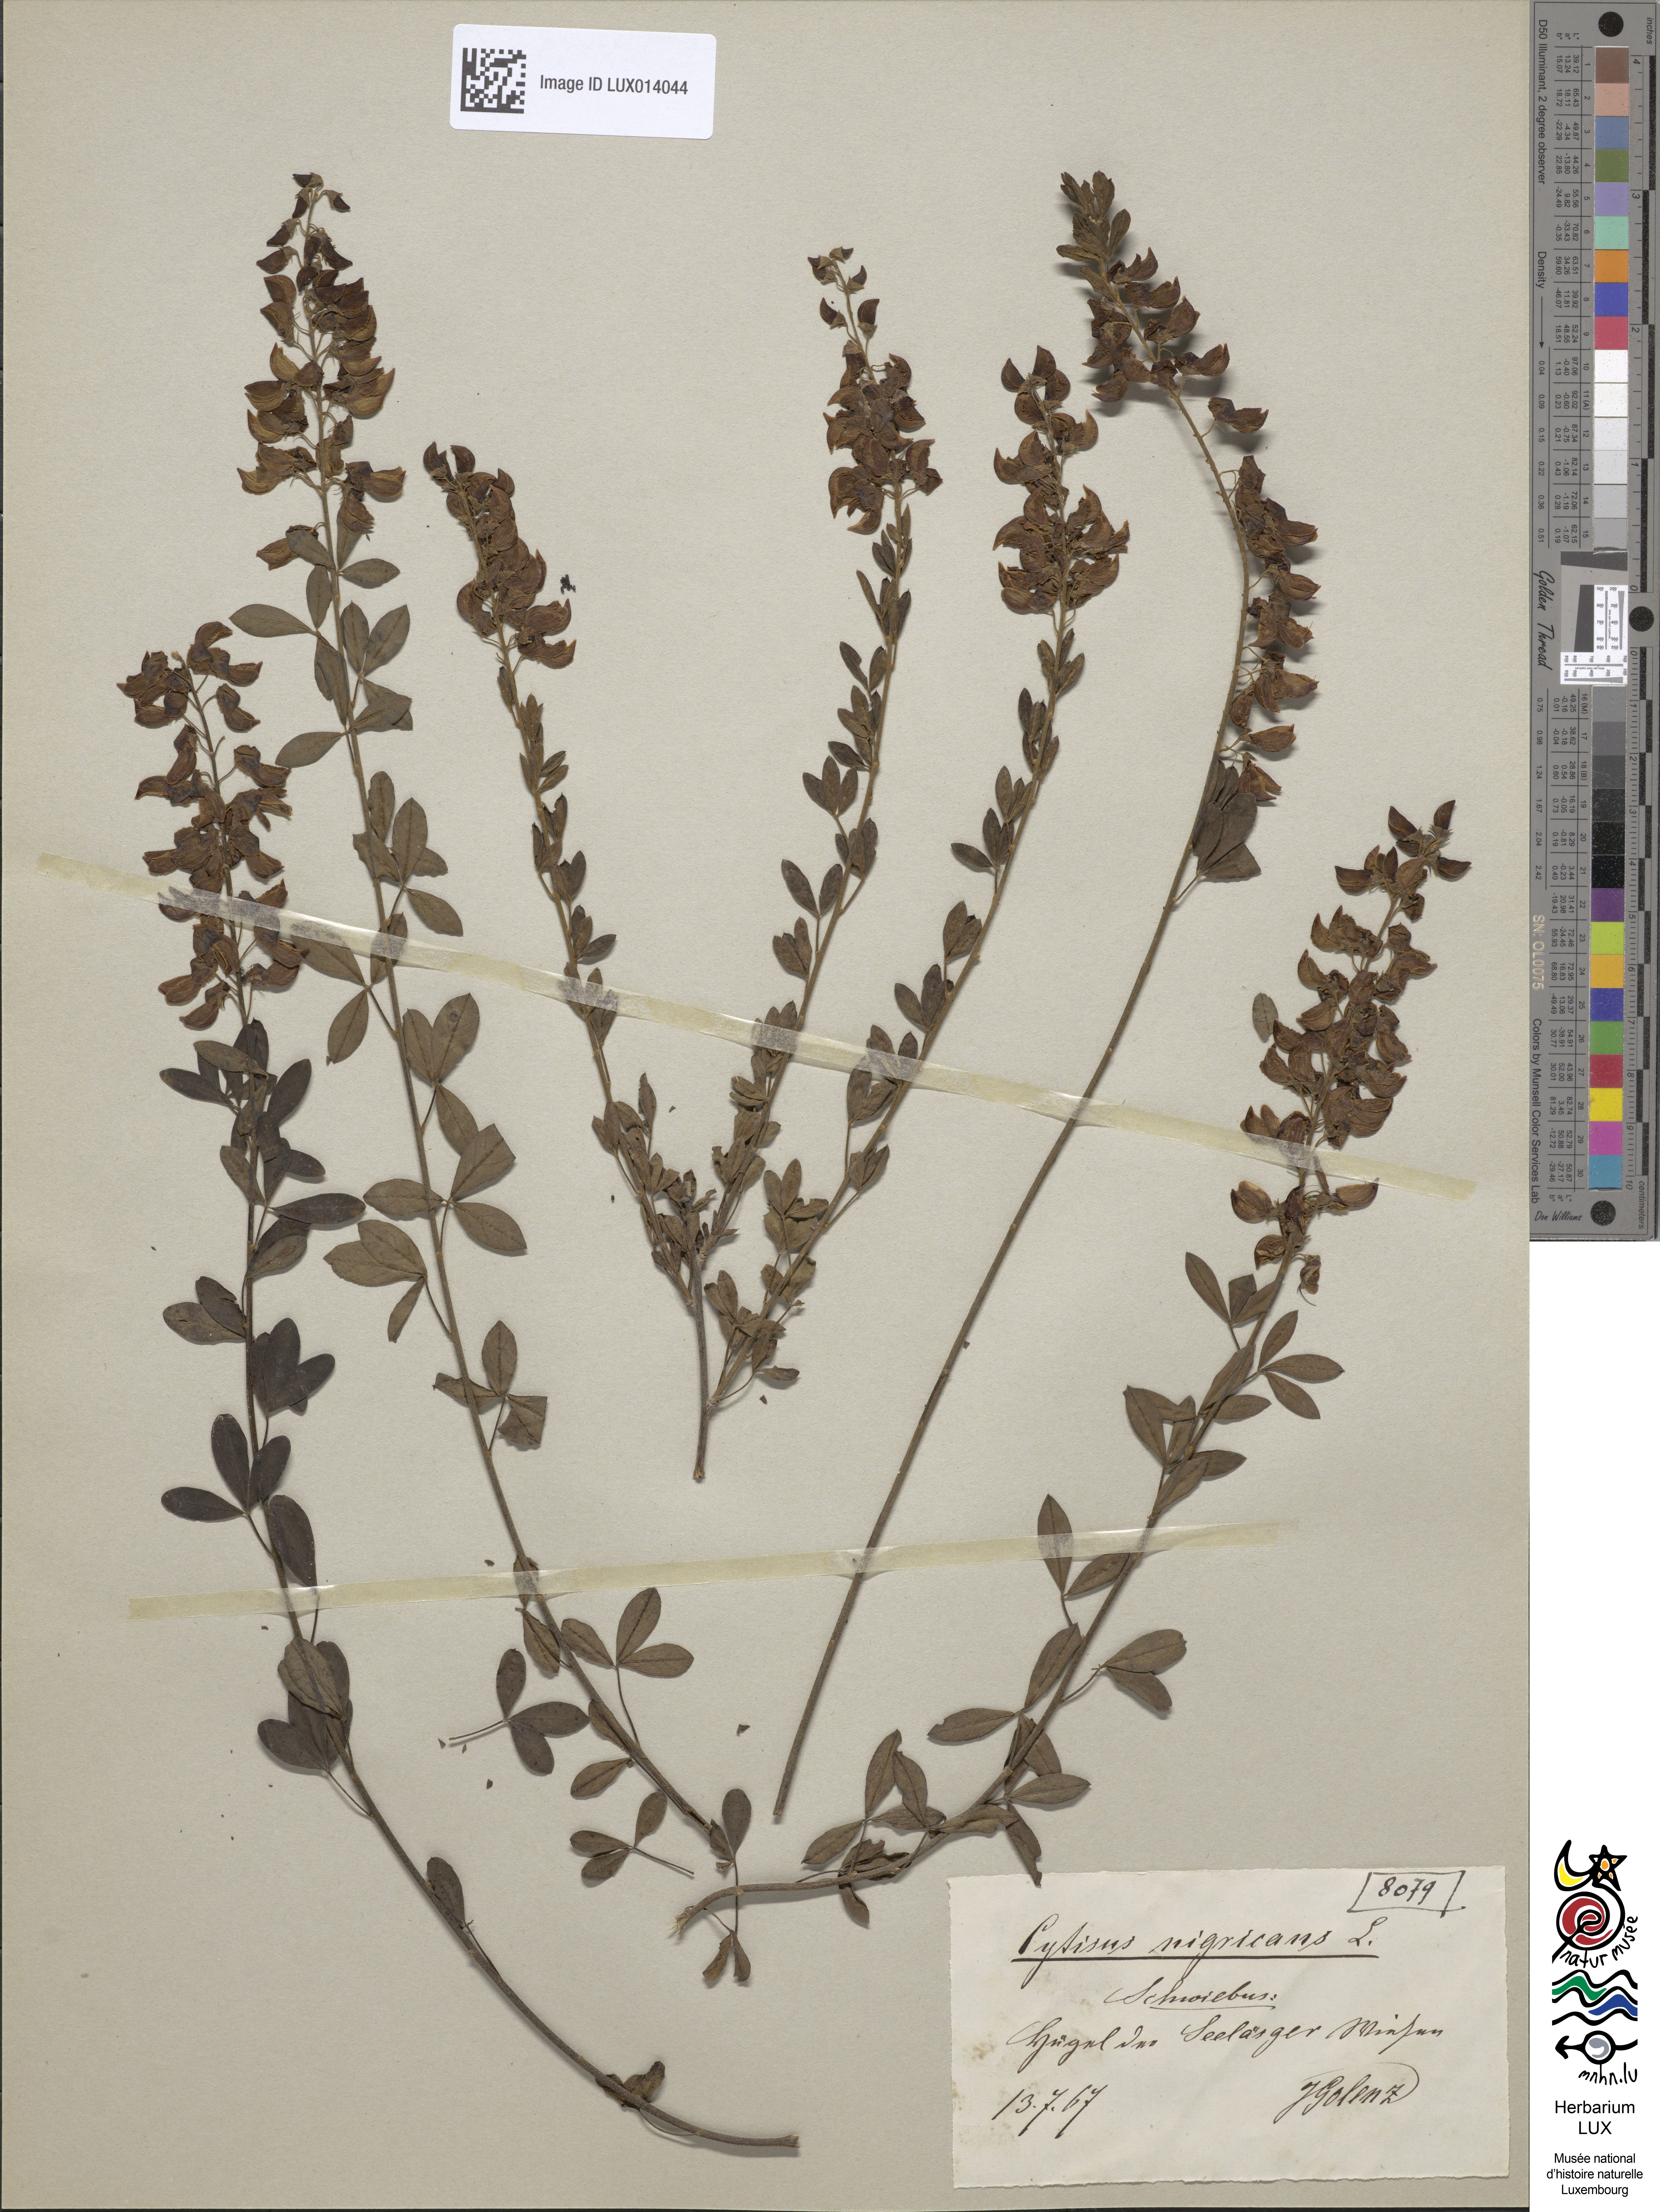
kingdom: Plantae
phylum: Tracheophyta
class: Magnoliopsida
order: Fabales
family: Fabaceae
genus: Cytisus
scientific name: Cytisus nigricans
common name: Black broom
